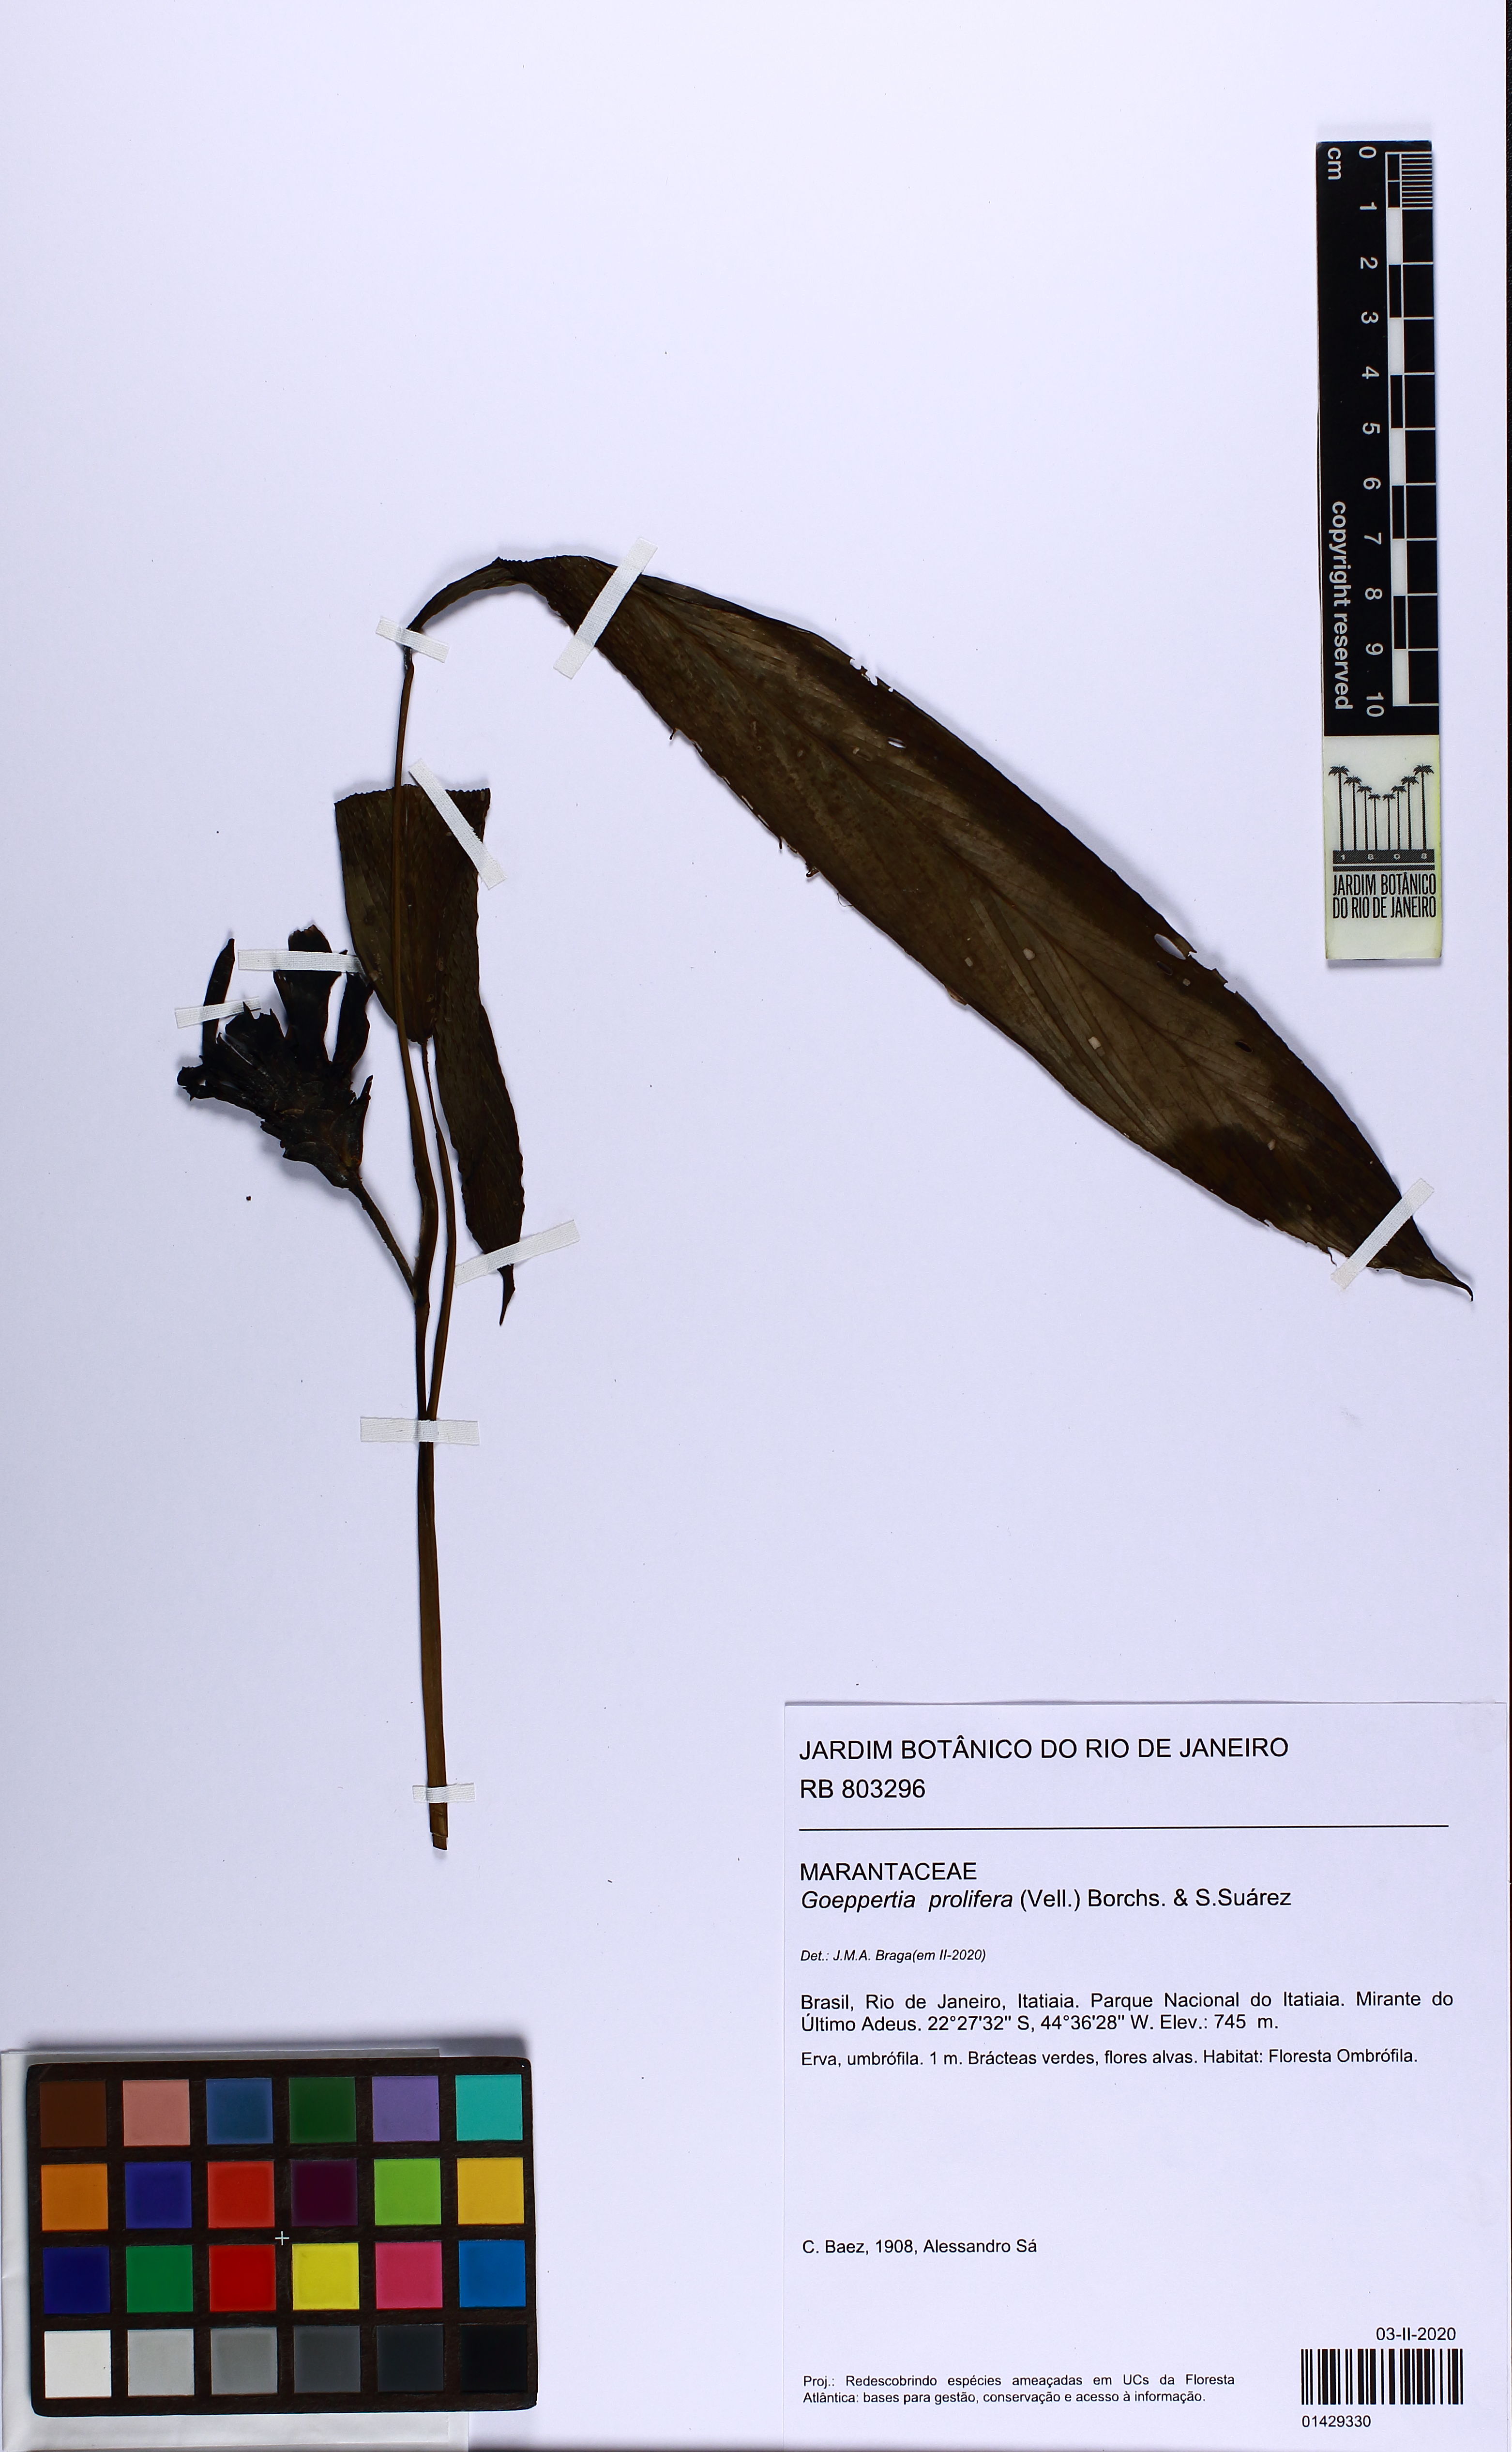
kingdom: Plantae
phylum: Tracheophyta
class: Liliopsida
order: Zingiberales
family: Marantaceae
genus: Goeppertia
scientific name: Goeppertia prolifera
